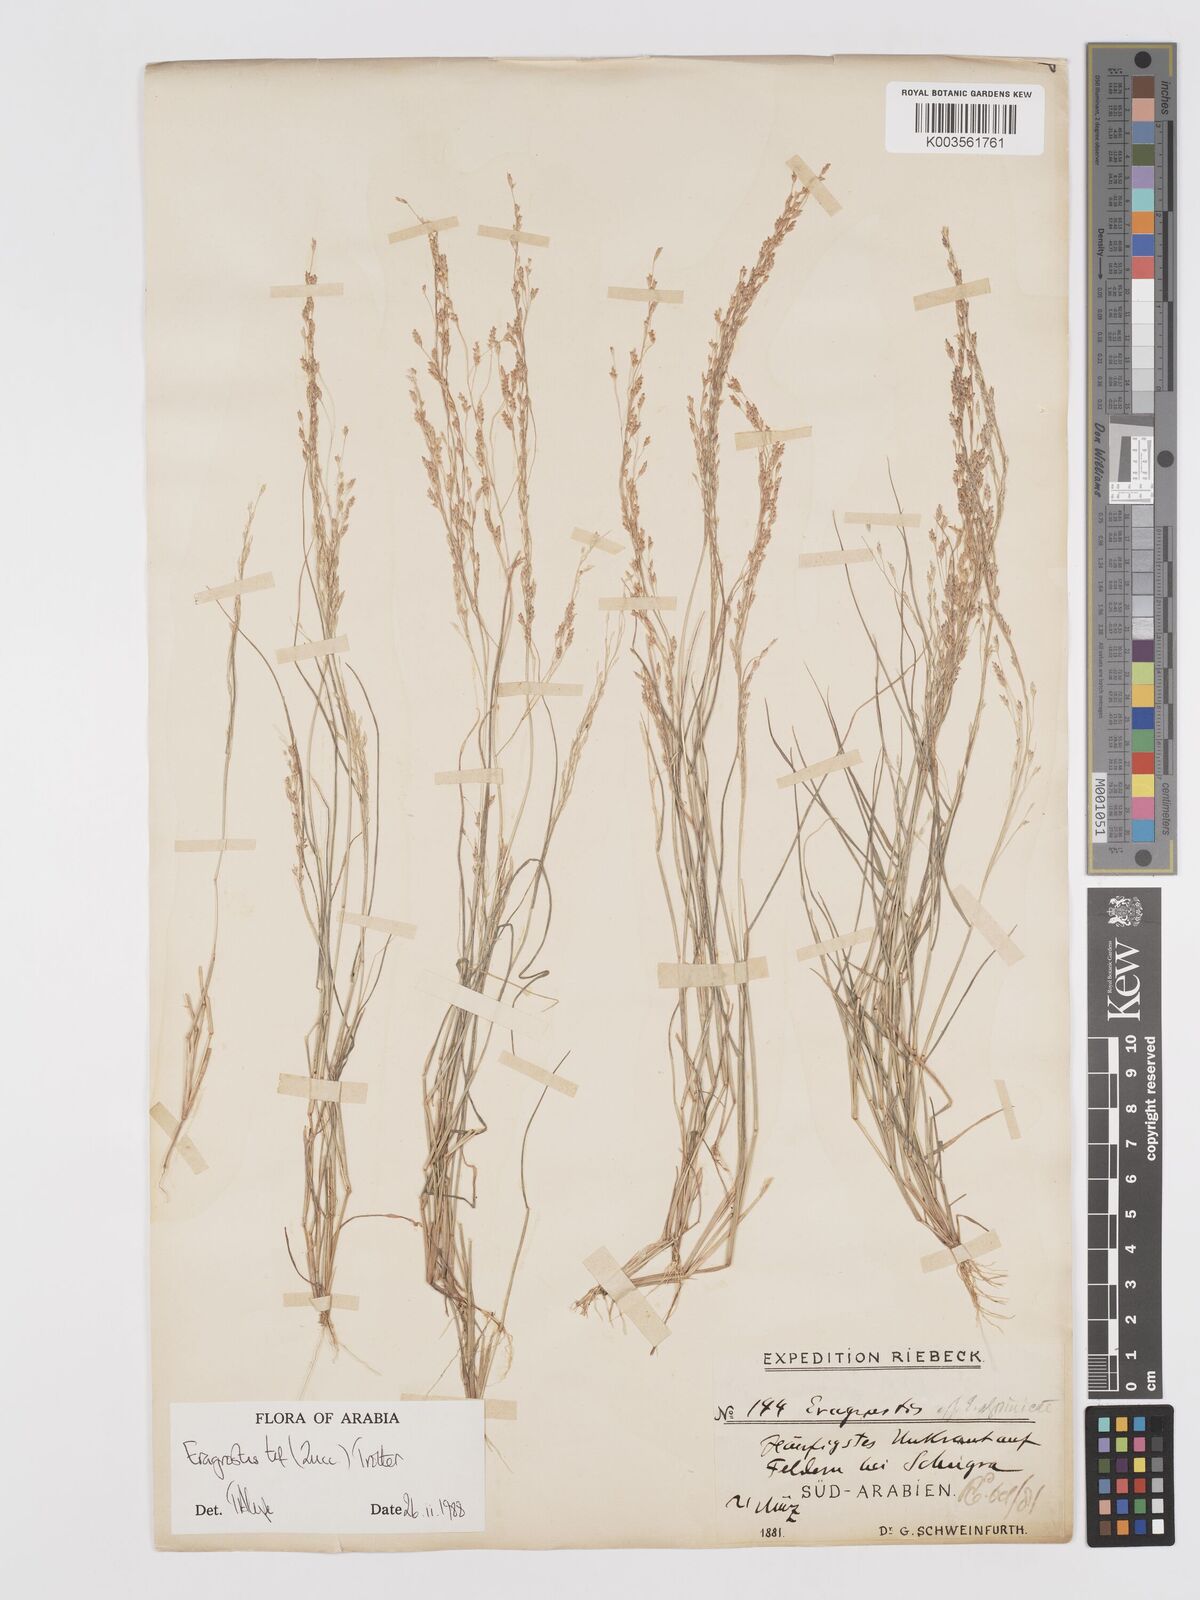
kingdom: Plantae
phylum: Tracheophyta
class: Liliopsida
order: Poales
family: Poaceae
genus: Eragrostis
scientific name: Eragrostis tef
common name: Teff
